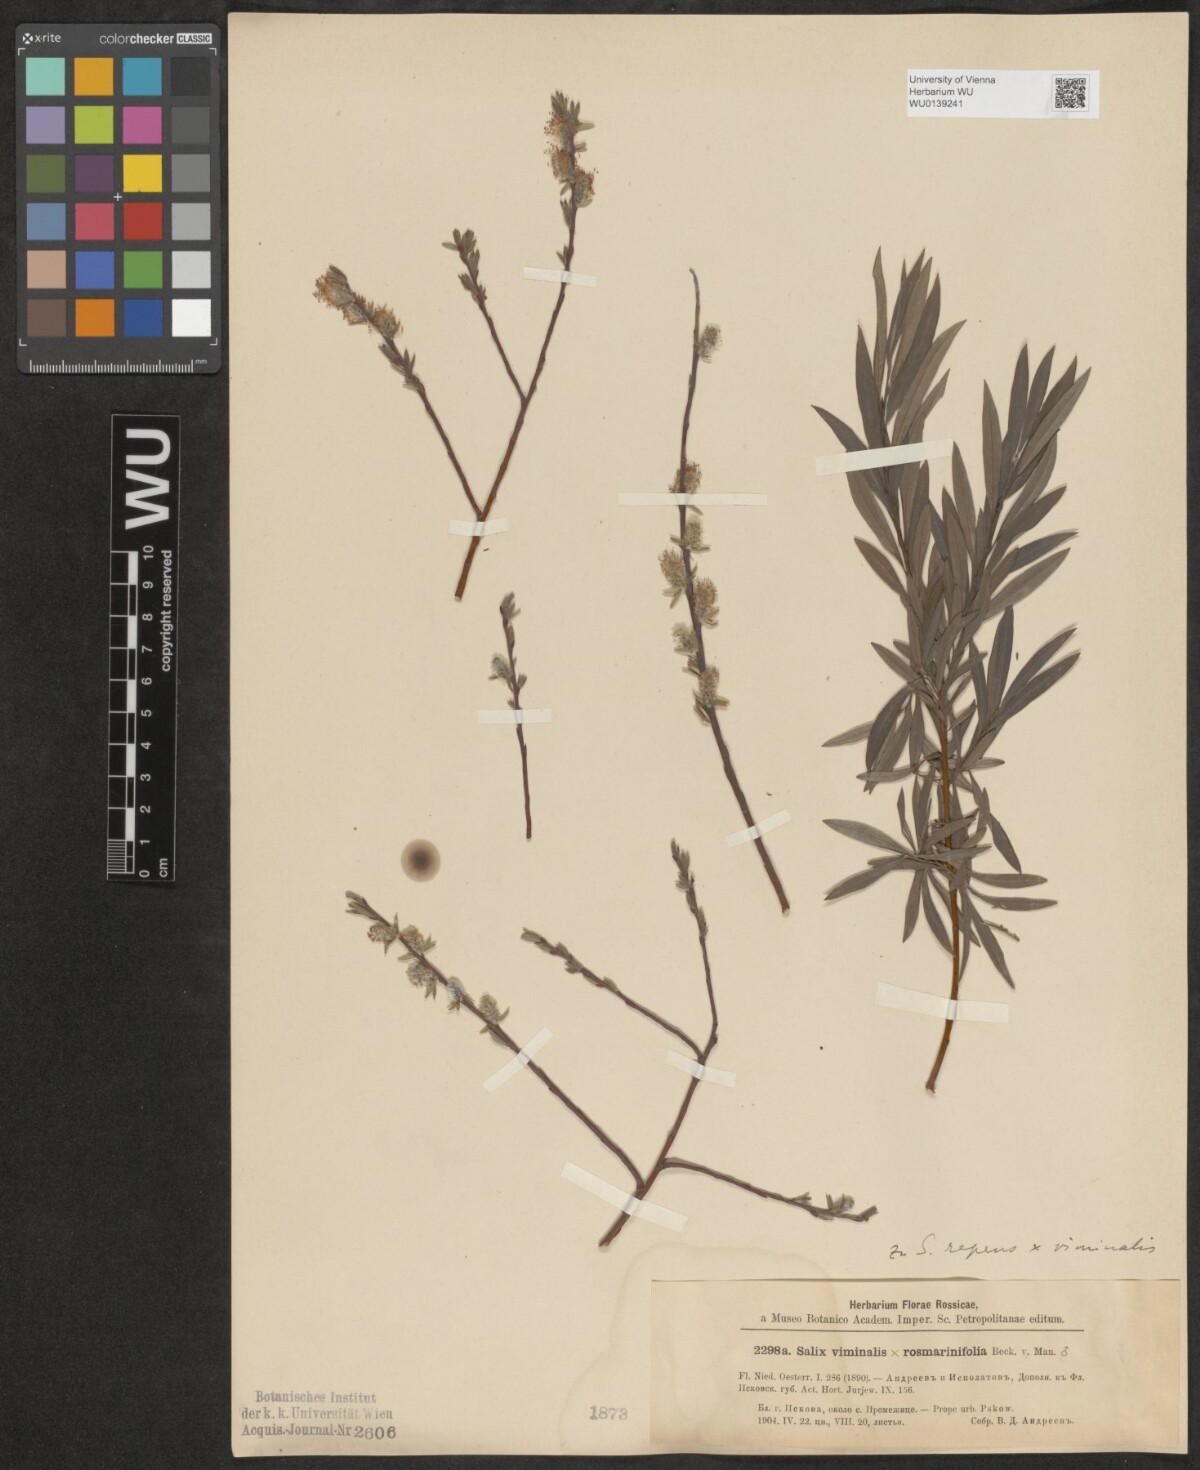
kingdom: Plantae
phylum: Tracheophyta
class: Magnoliopsida
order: Malpighiales
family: Salicaceae
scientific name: Salicaceae
